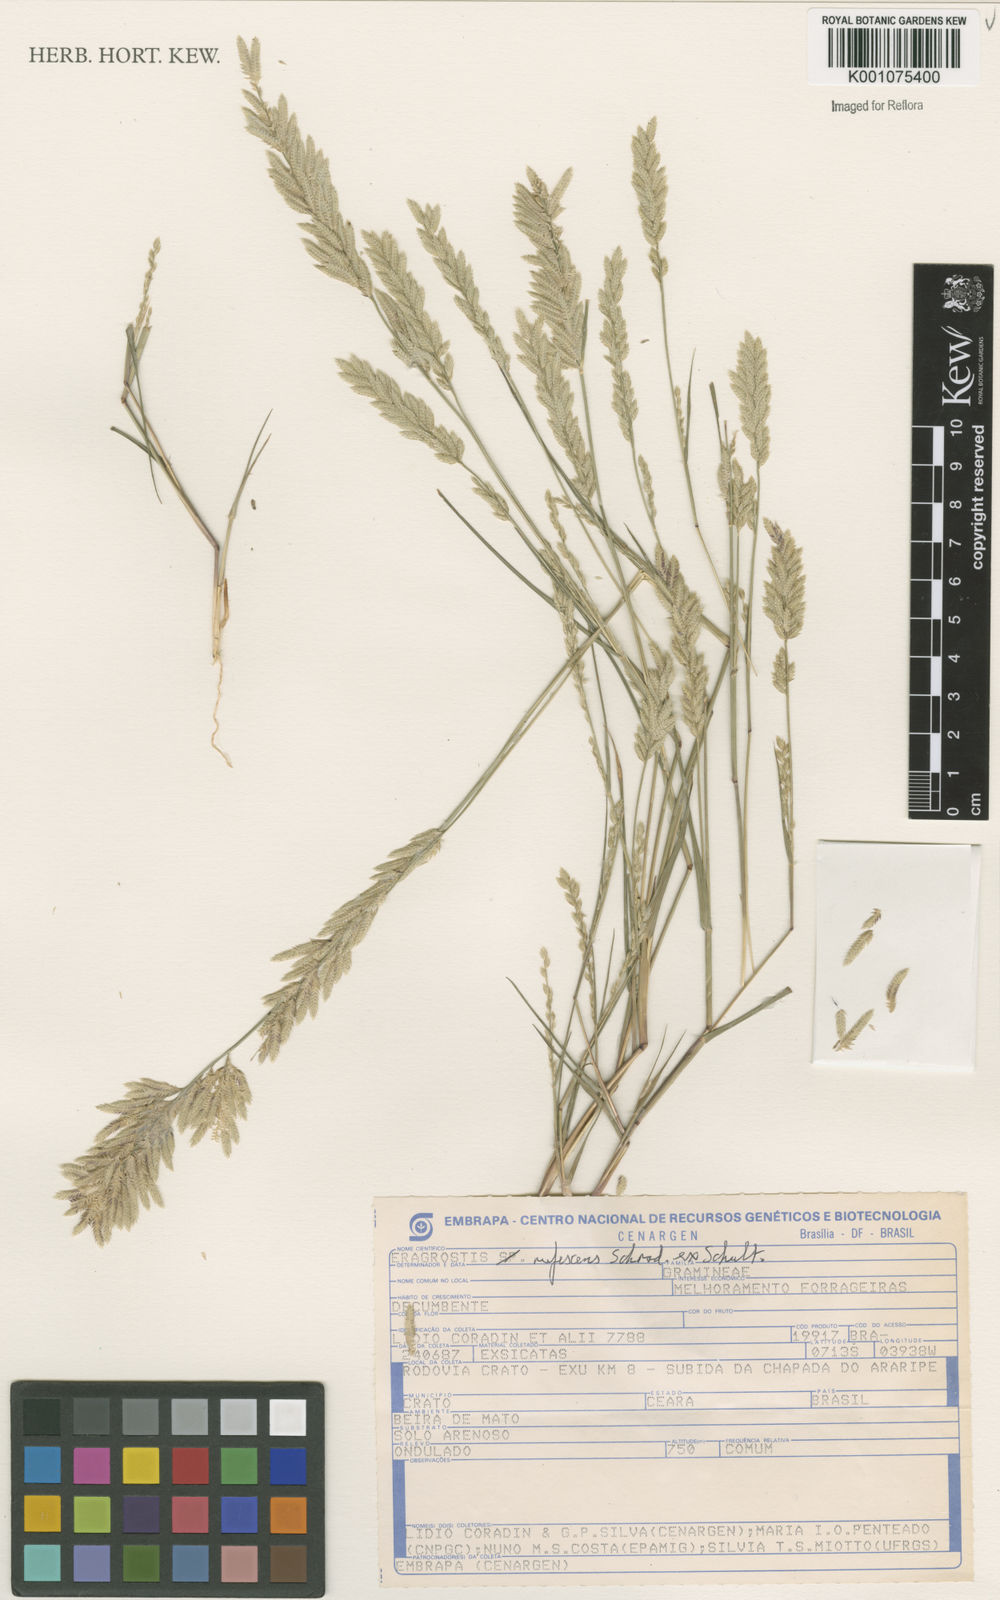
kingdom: Plantae
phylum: Tracheophyta
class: Liliopsida
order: Poales
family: Poaceae
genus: Eragrostis
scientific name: Eragrostis rufescens
